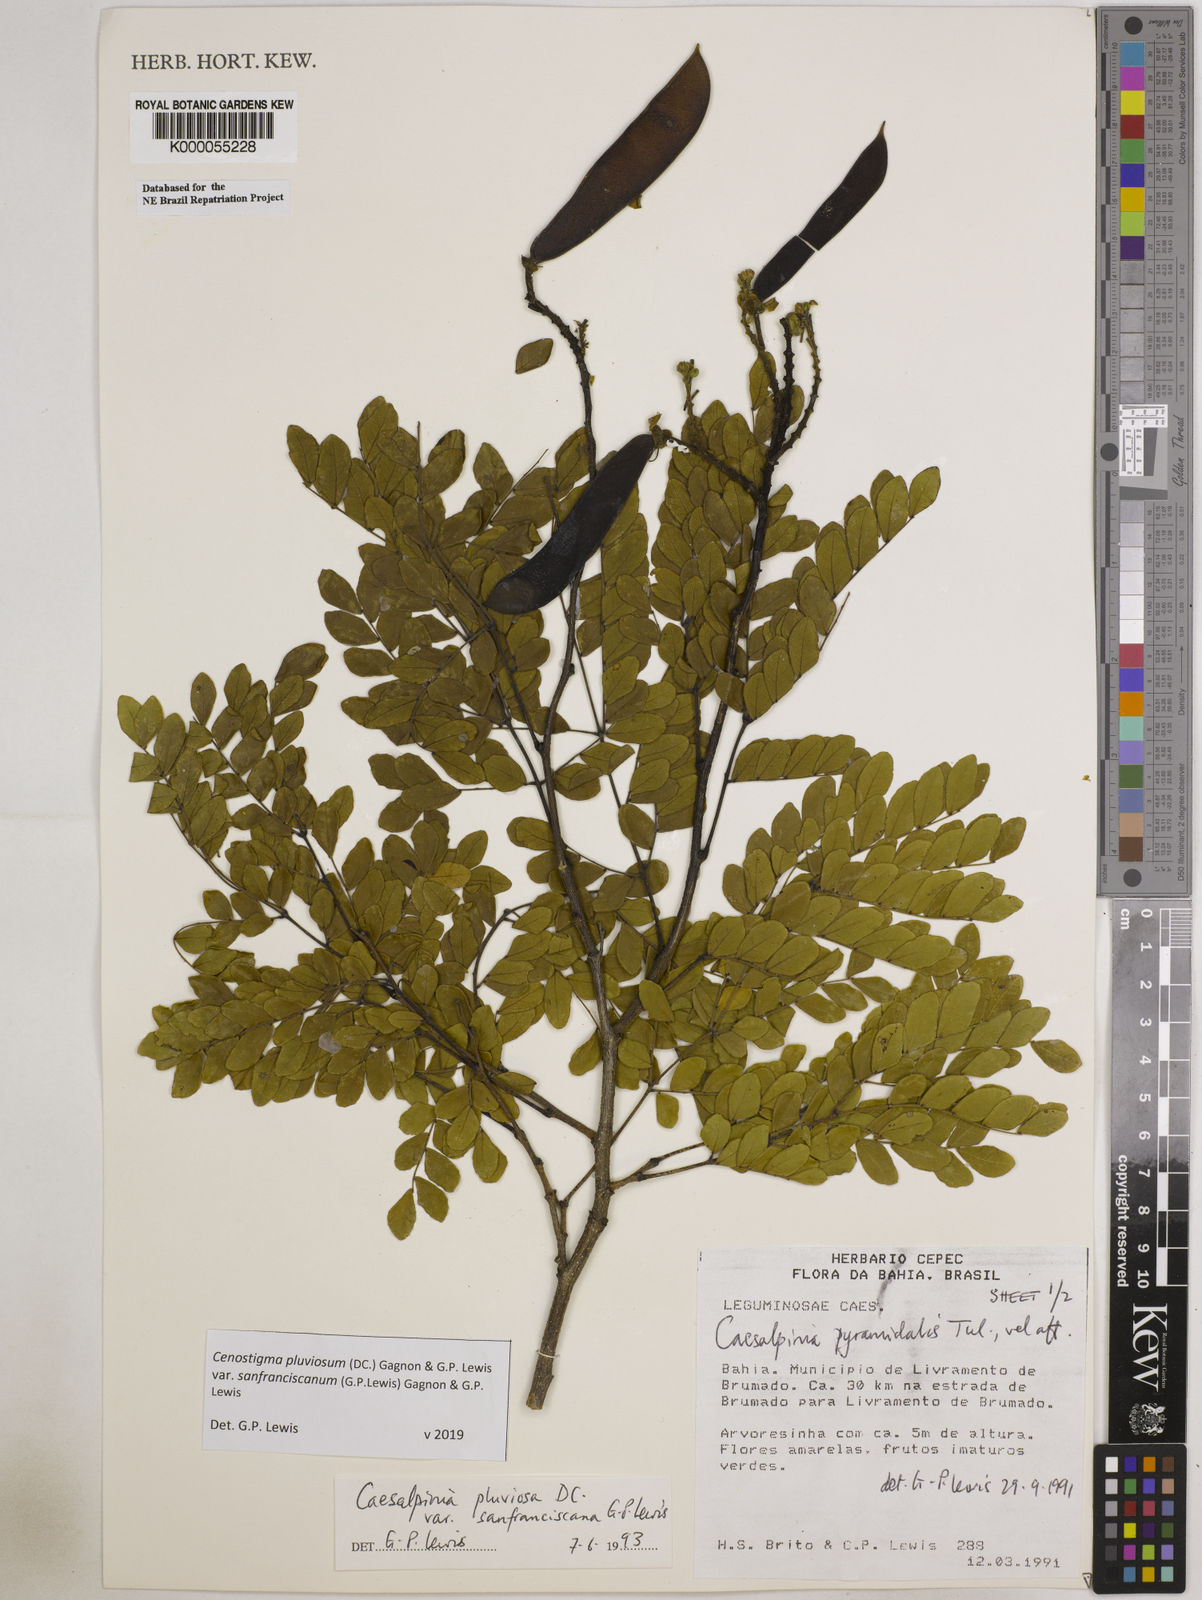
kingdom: Plantae
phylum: Tracheophyta
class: Magnoliopsida
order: Fabales
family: Fabaceae
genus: Cenostigma
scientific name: Cenostigma pluviosum
